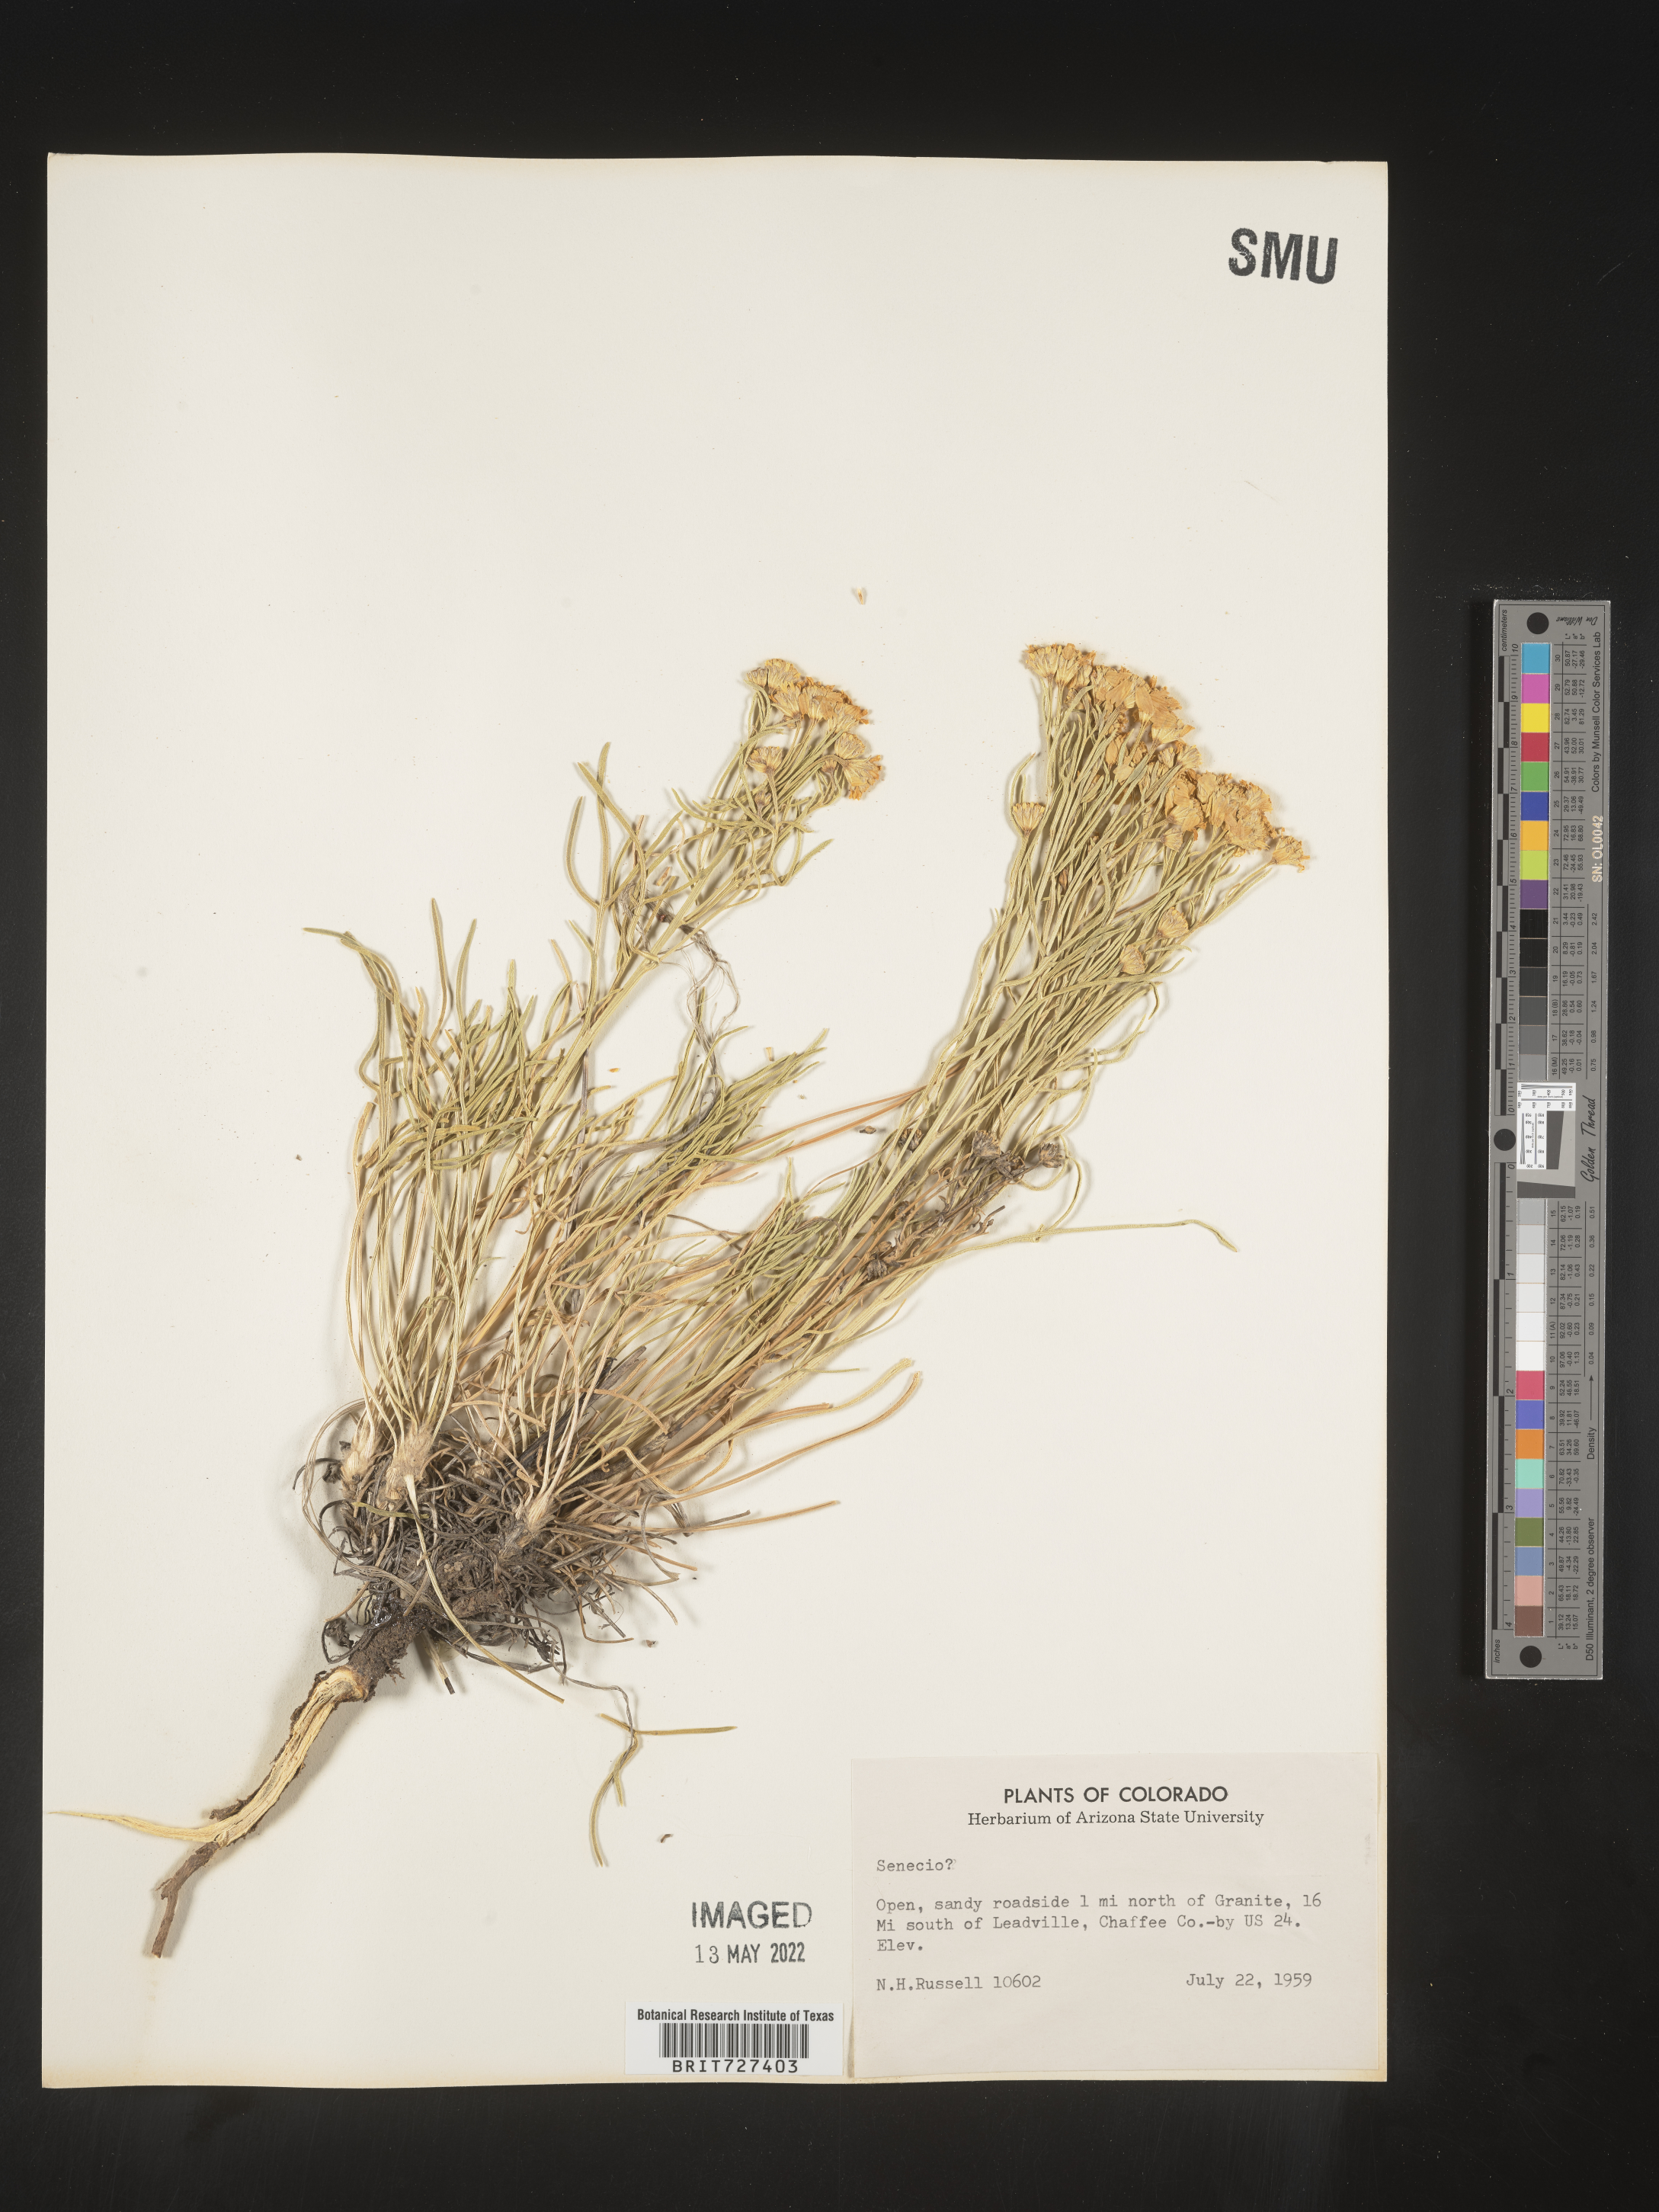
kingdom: Plantae
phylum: Tracheophyta
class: Magnoliopsida
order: Asterales
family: Asteraceae
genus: Hymenoxys
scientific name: Hymenoxys
